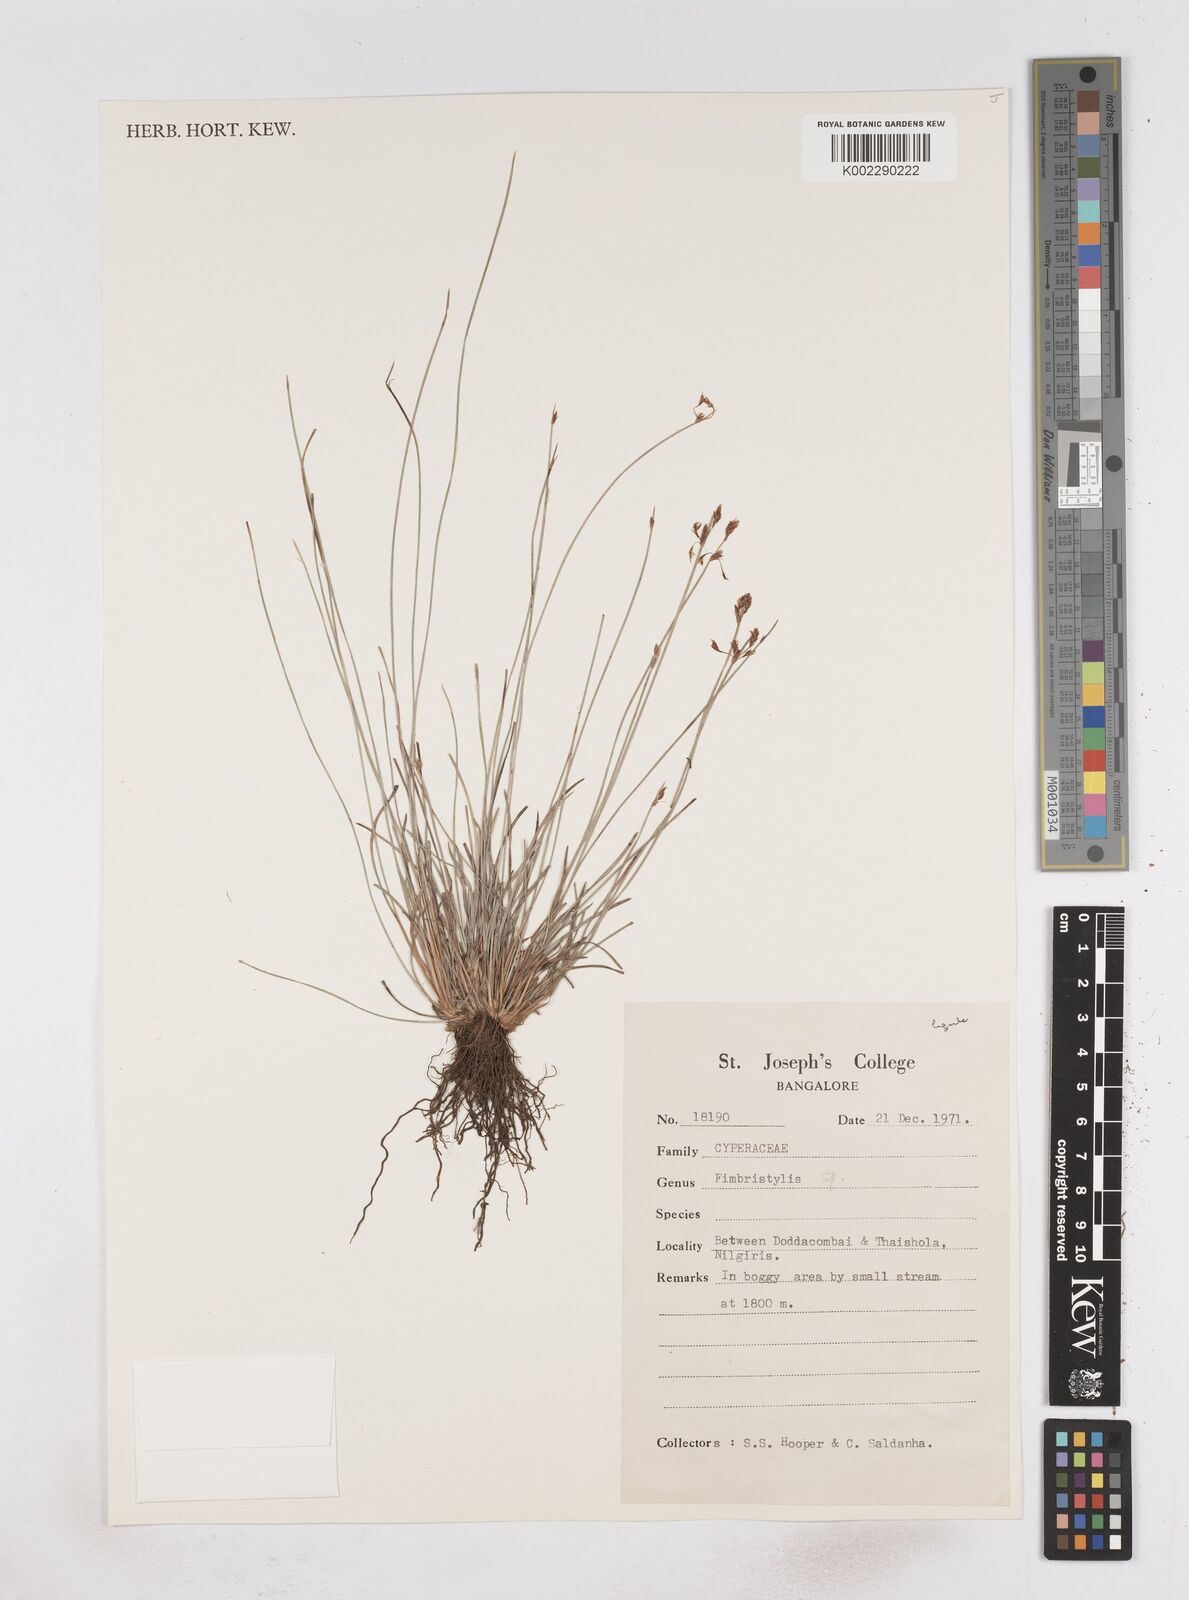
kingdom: Plantae
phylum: Tracheophyta
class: Liliopsida
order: Poales
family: Cyperaceae
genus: Fimbristylis
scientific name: Fimbristylis
